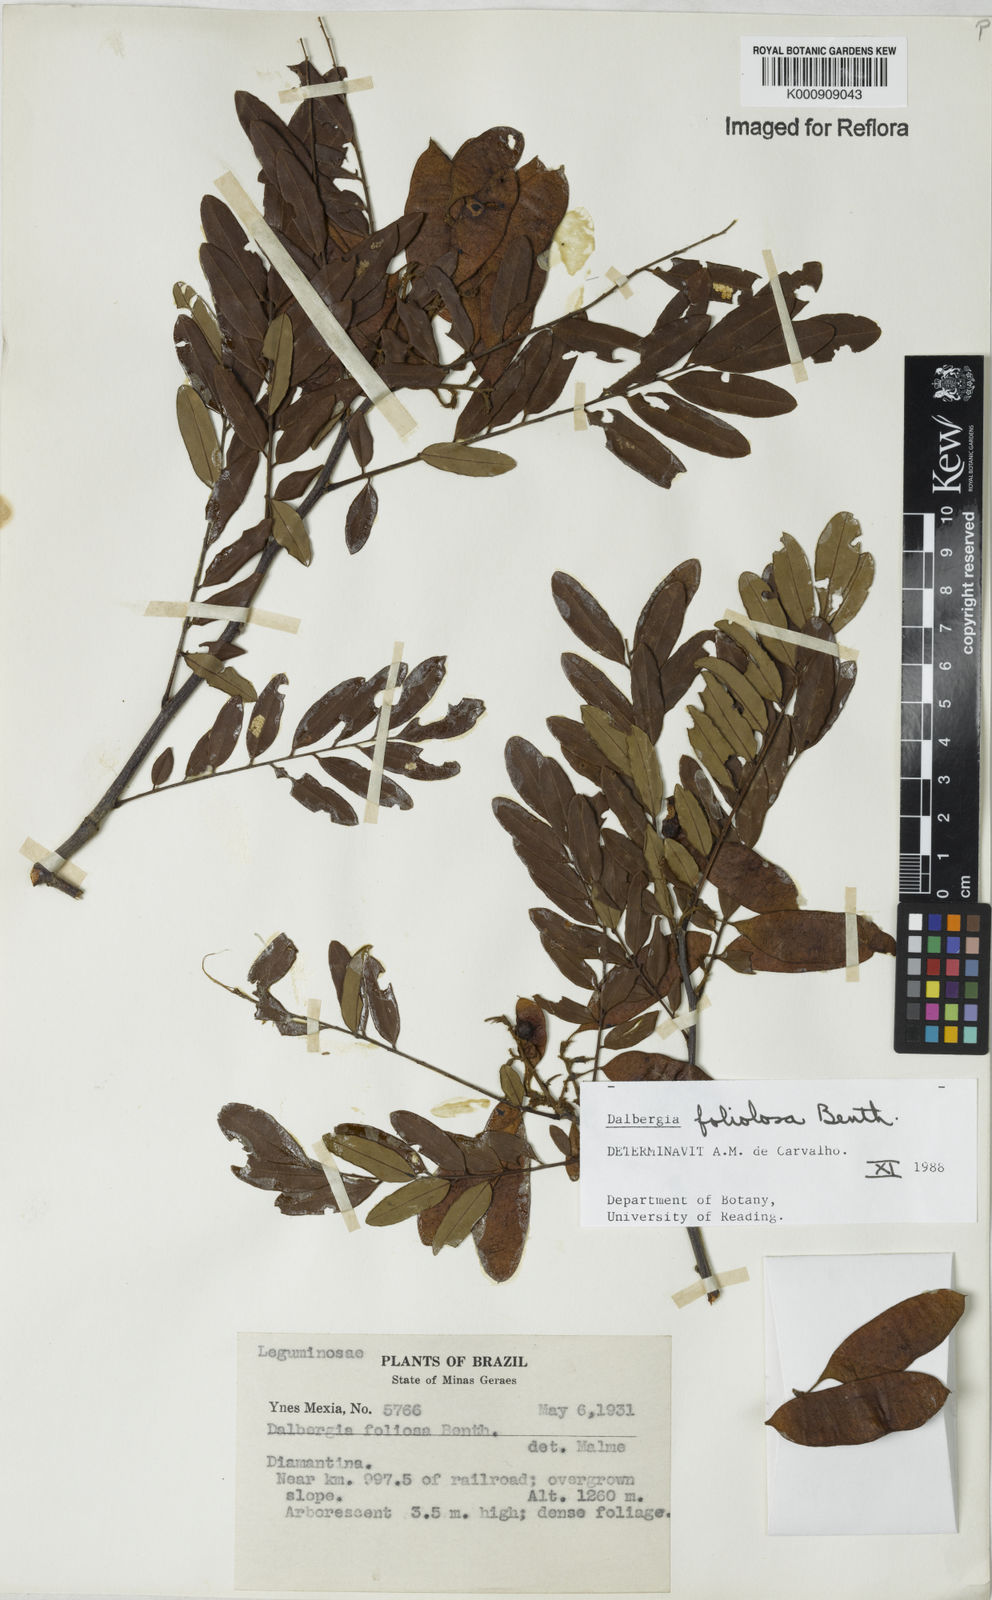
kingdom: Plantae
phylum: Tracheophyta
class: Magnoliopsida
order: Fabales
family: Fabaceae
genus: Dalbergia
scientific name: Dalbergia foliolosa
